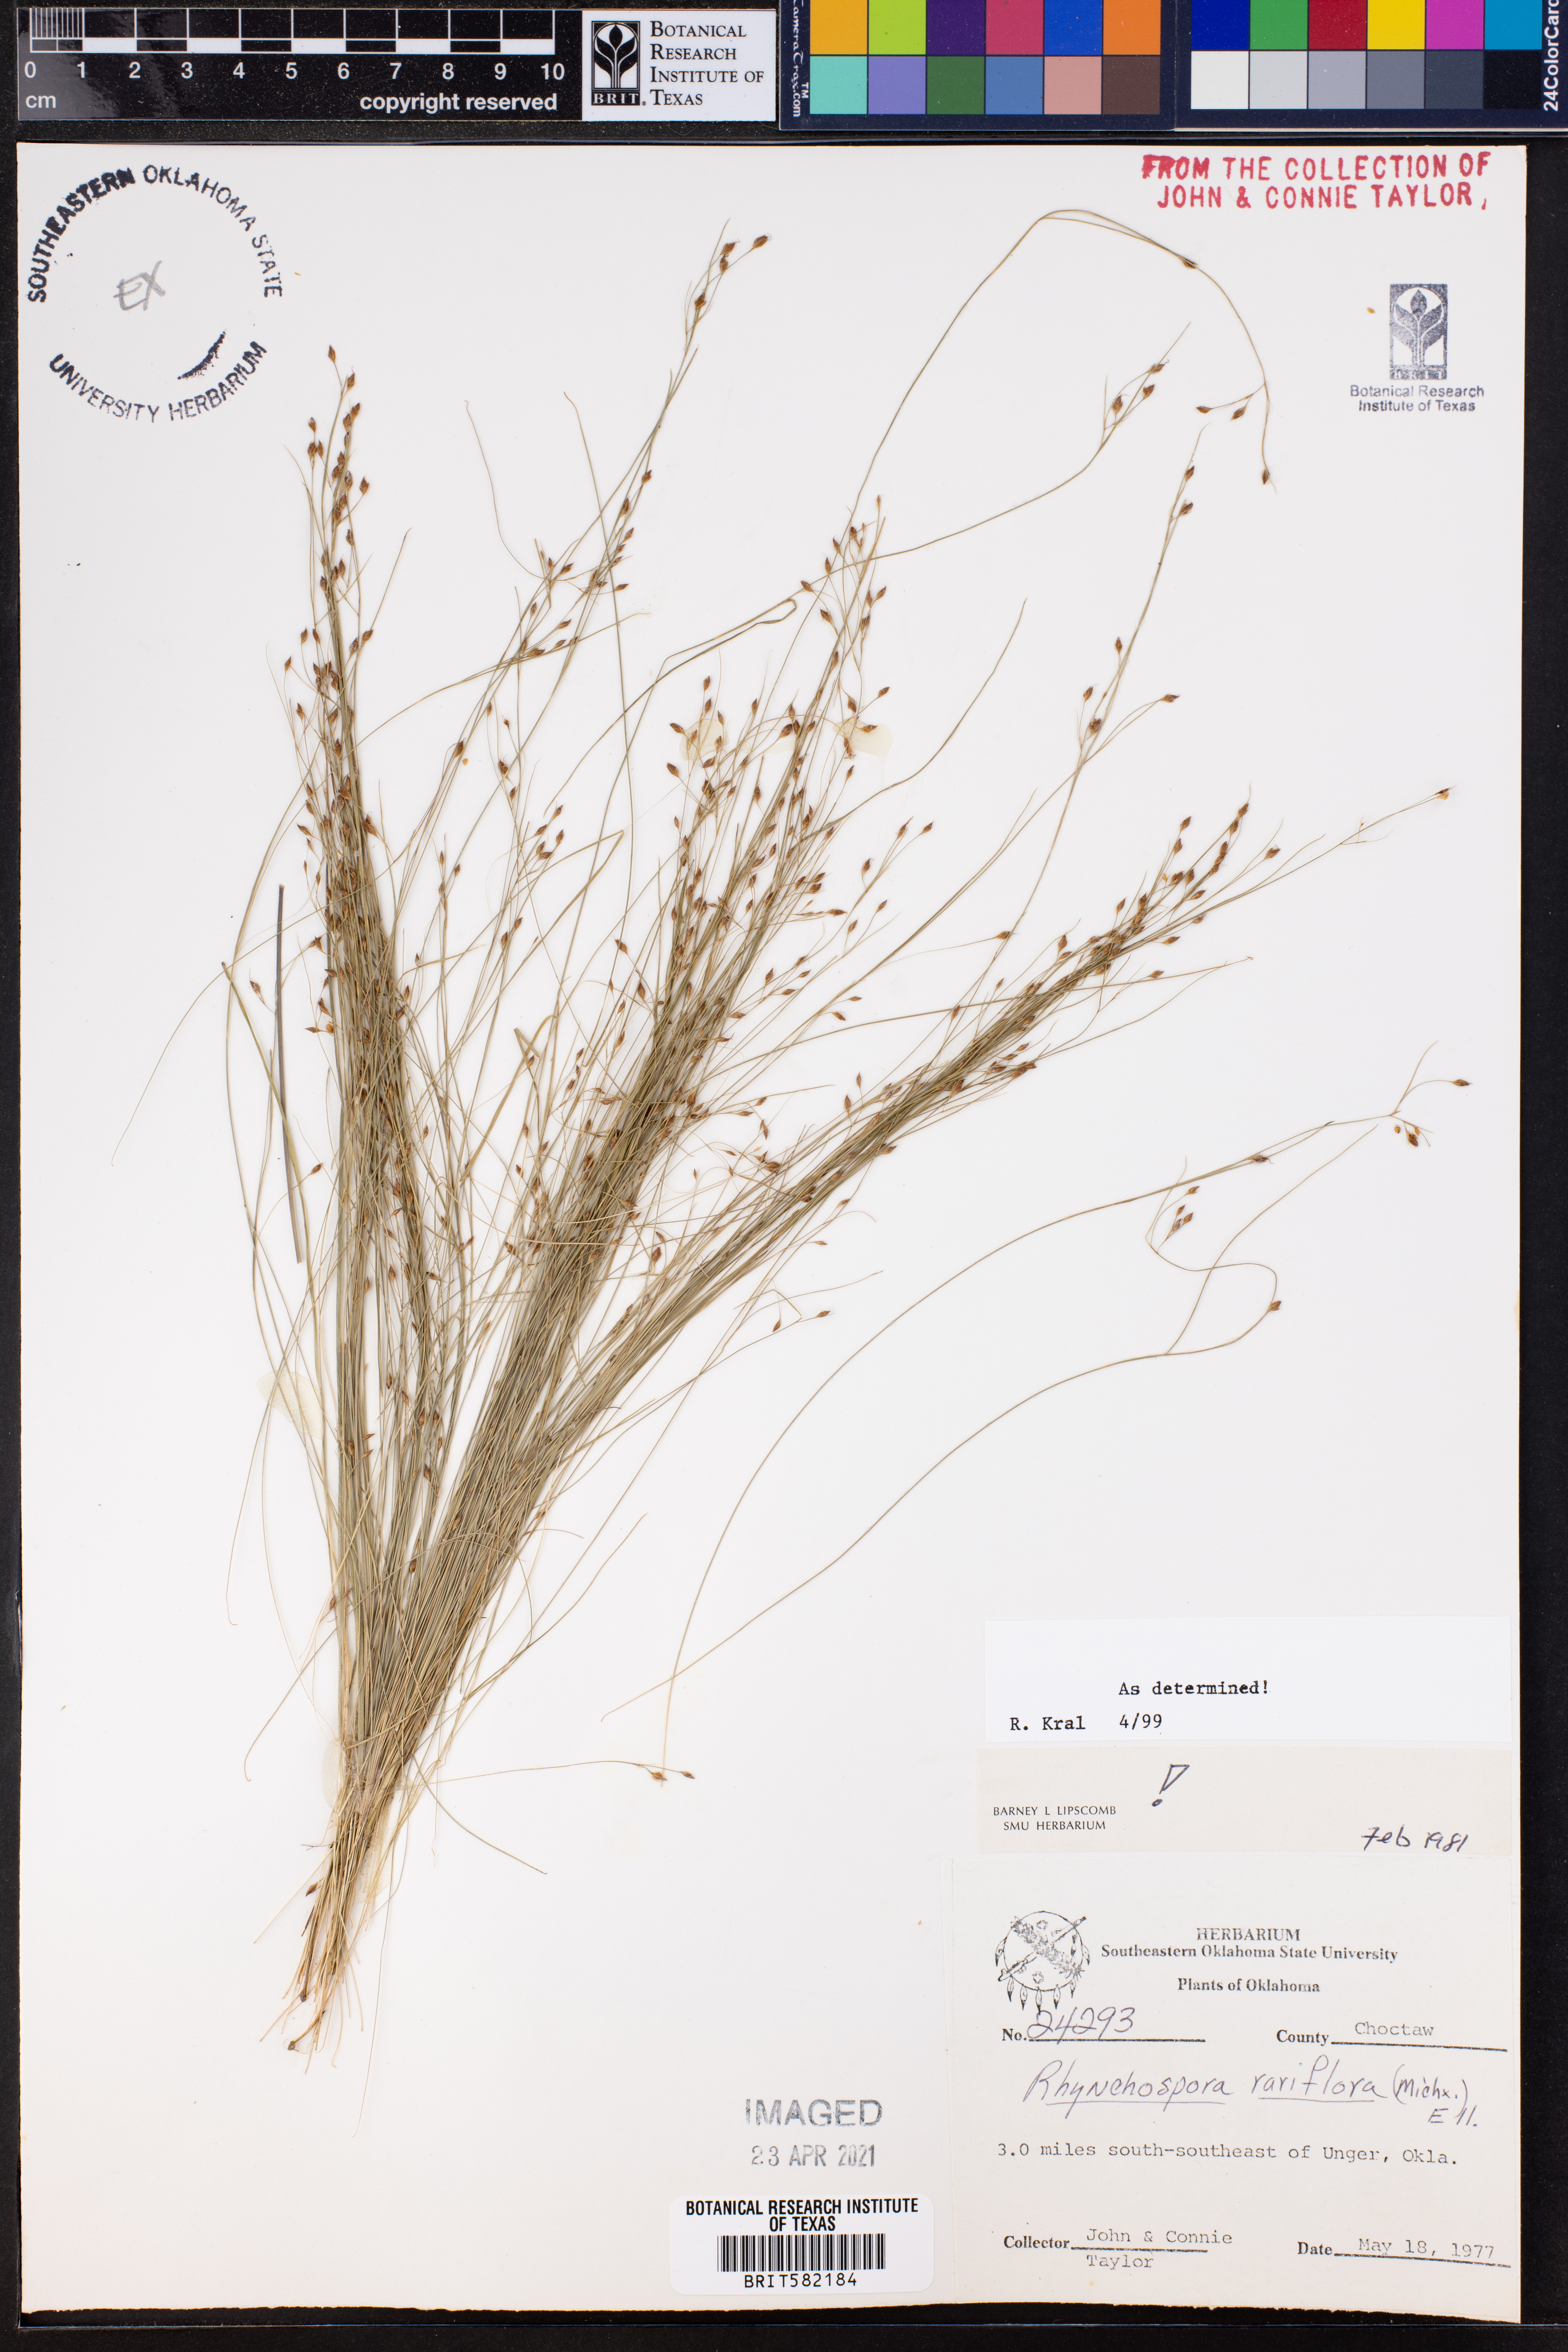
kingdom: Plantae
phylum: Tracheophyta
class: Liliopsida
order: Poales
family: Cyperaceae
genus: Rhynchospora
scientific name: Rhynchospora rariflora
